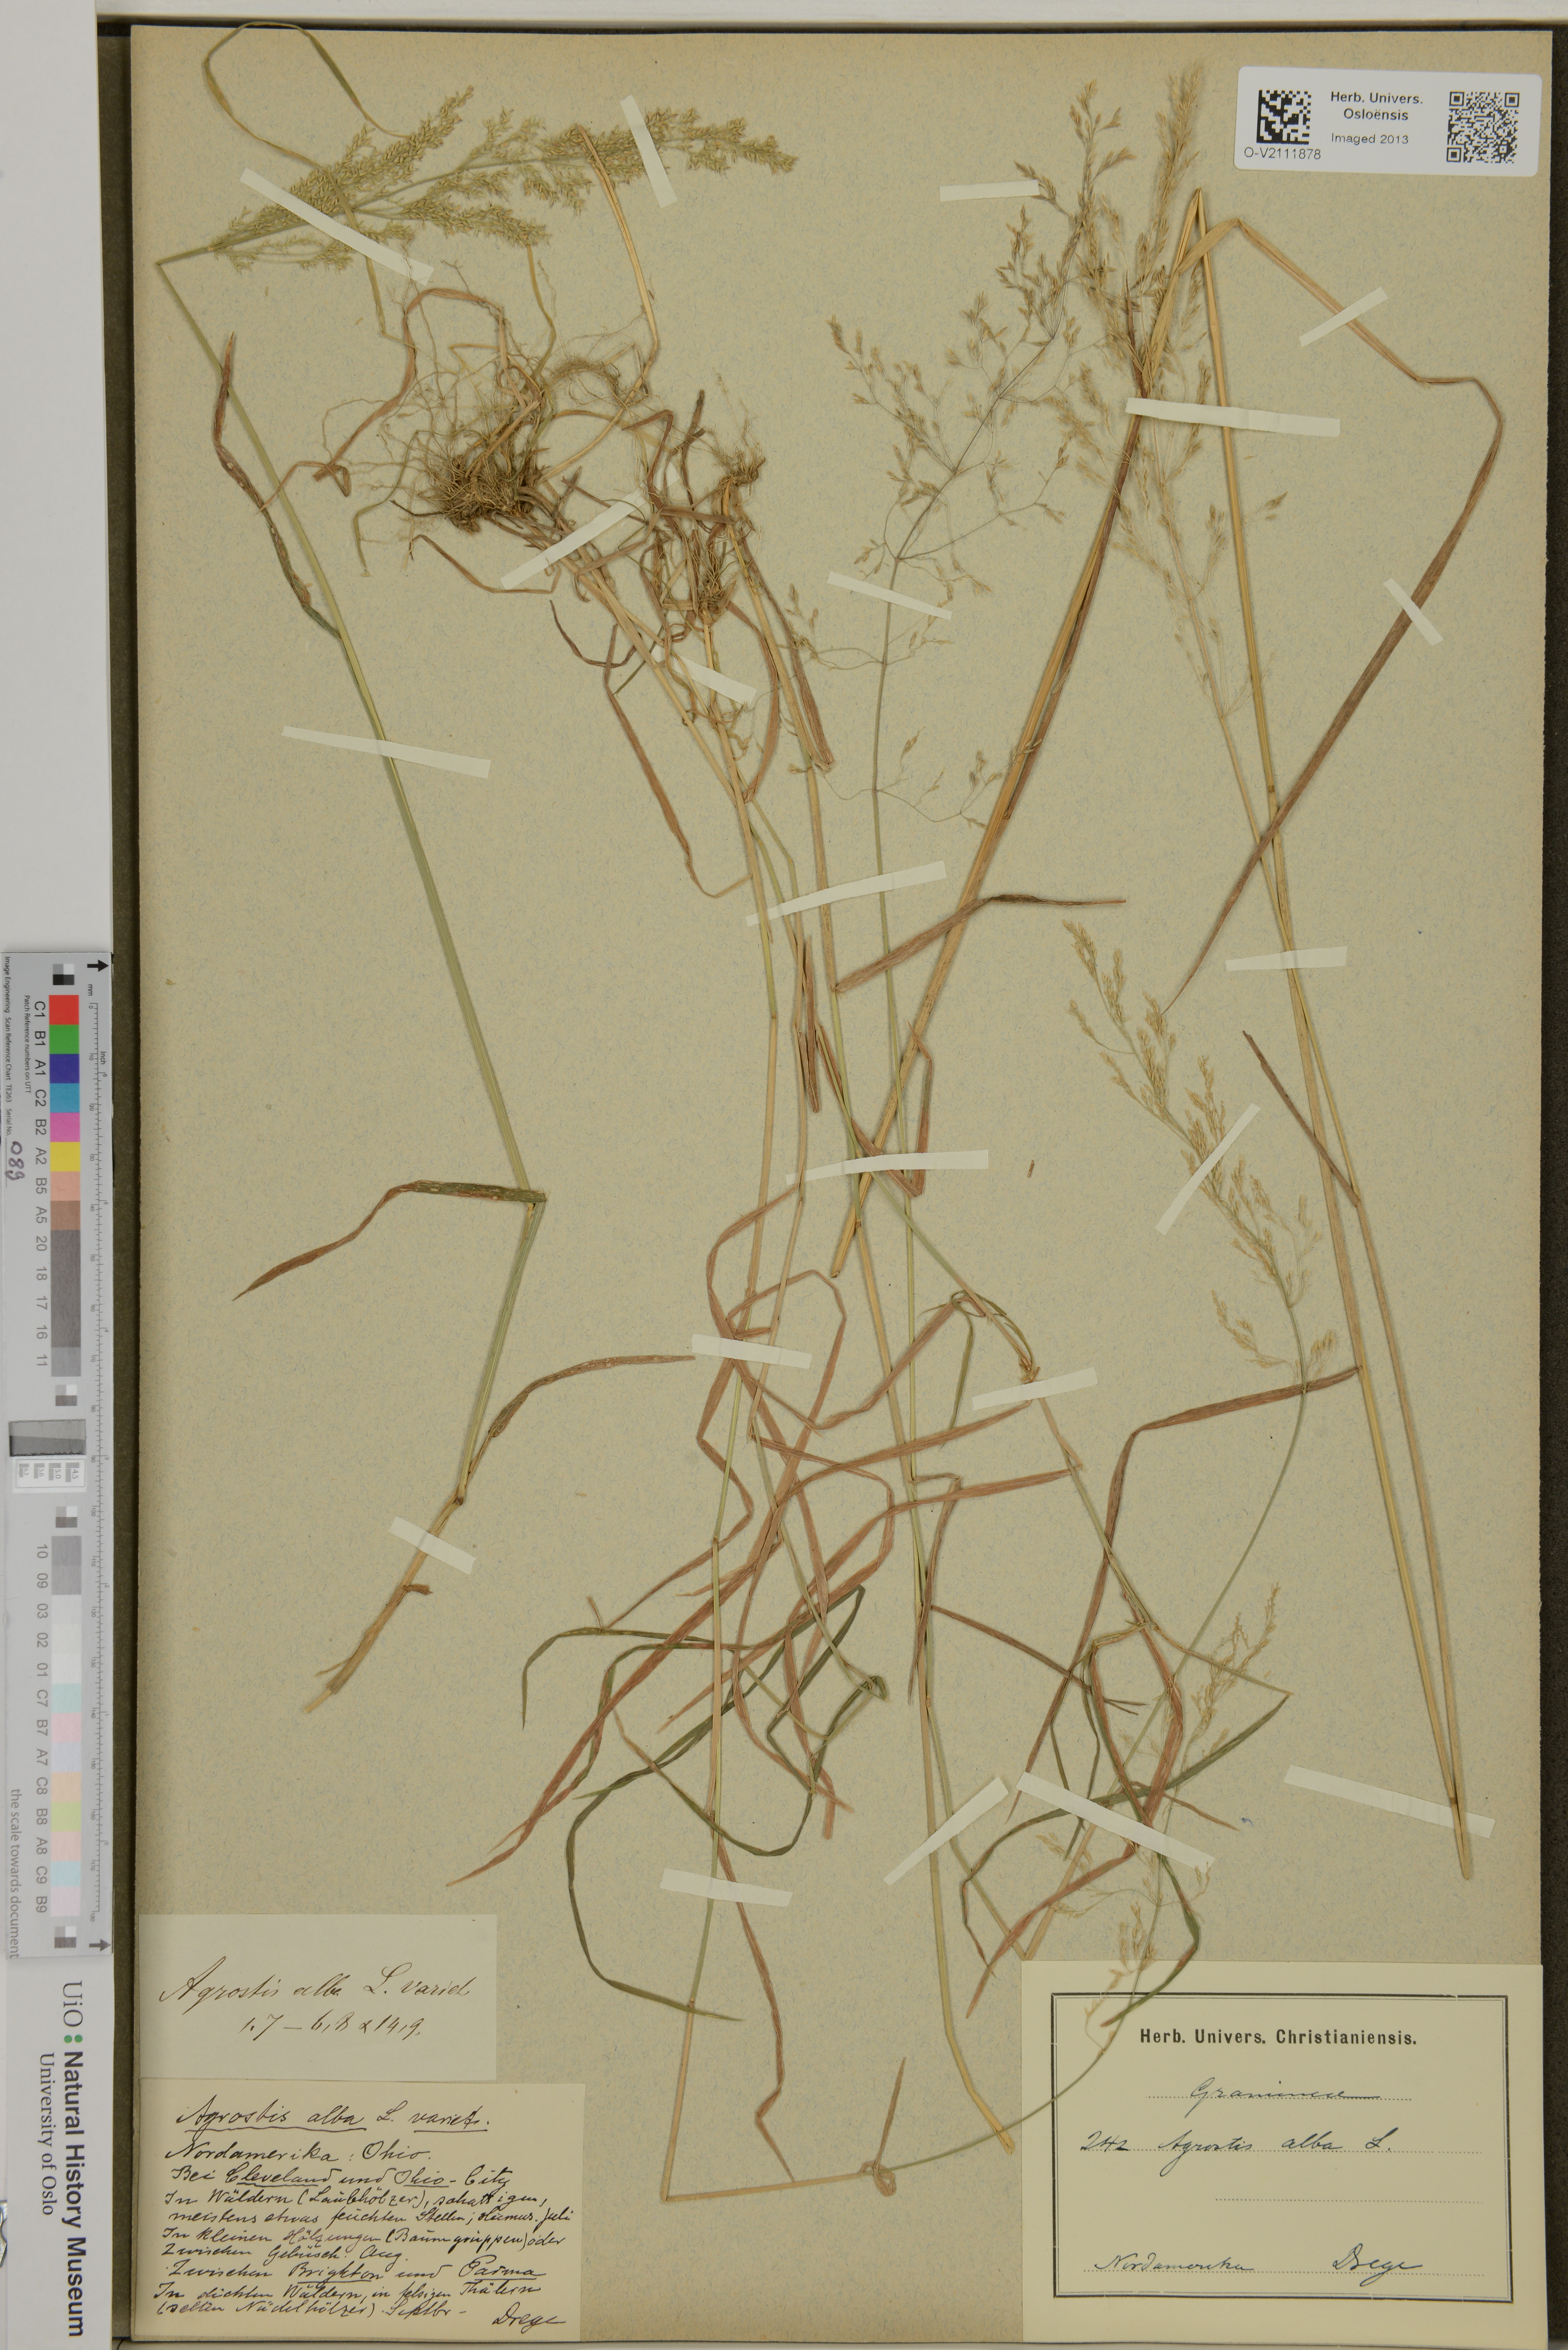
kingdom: Plantae
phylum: Tracheophyta
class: Liliopsida
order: Poales
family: Poaceae
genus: Agrostis
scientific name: Agrostis stolonifera
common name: Creeping bentgrass
